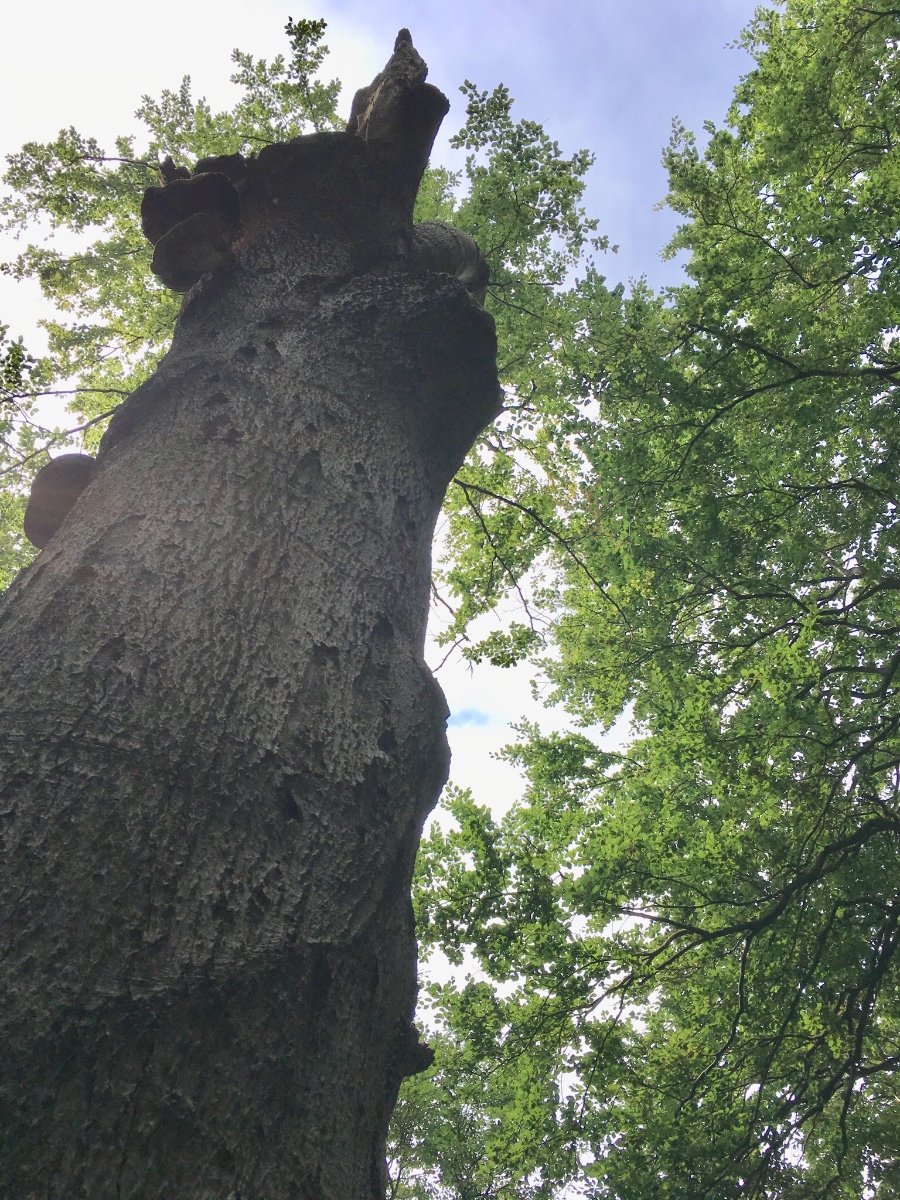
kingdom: Fungi
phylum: Basidiomycota
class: Agaricomycetes
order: Polyporales
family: Polyporaceae
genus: Cerioporus
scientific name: Cerioporus squamosus
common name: skællet stilkporesvamp
